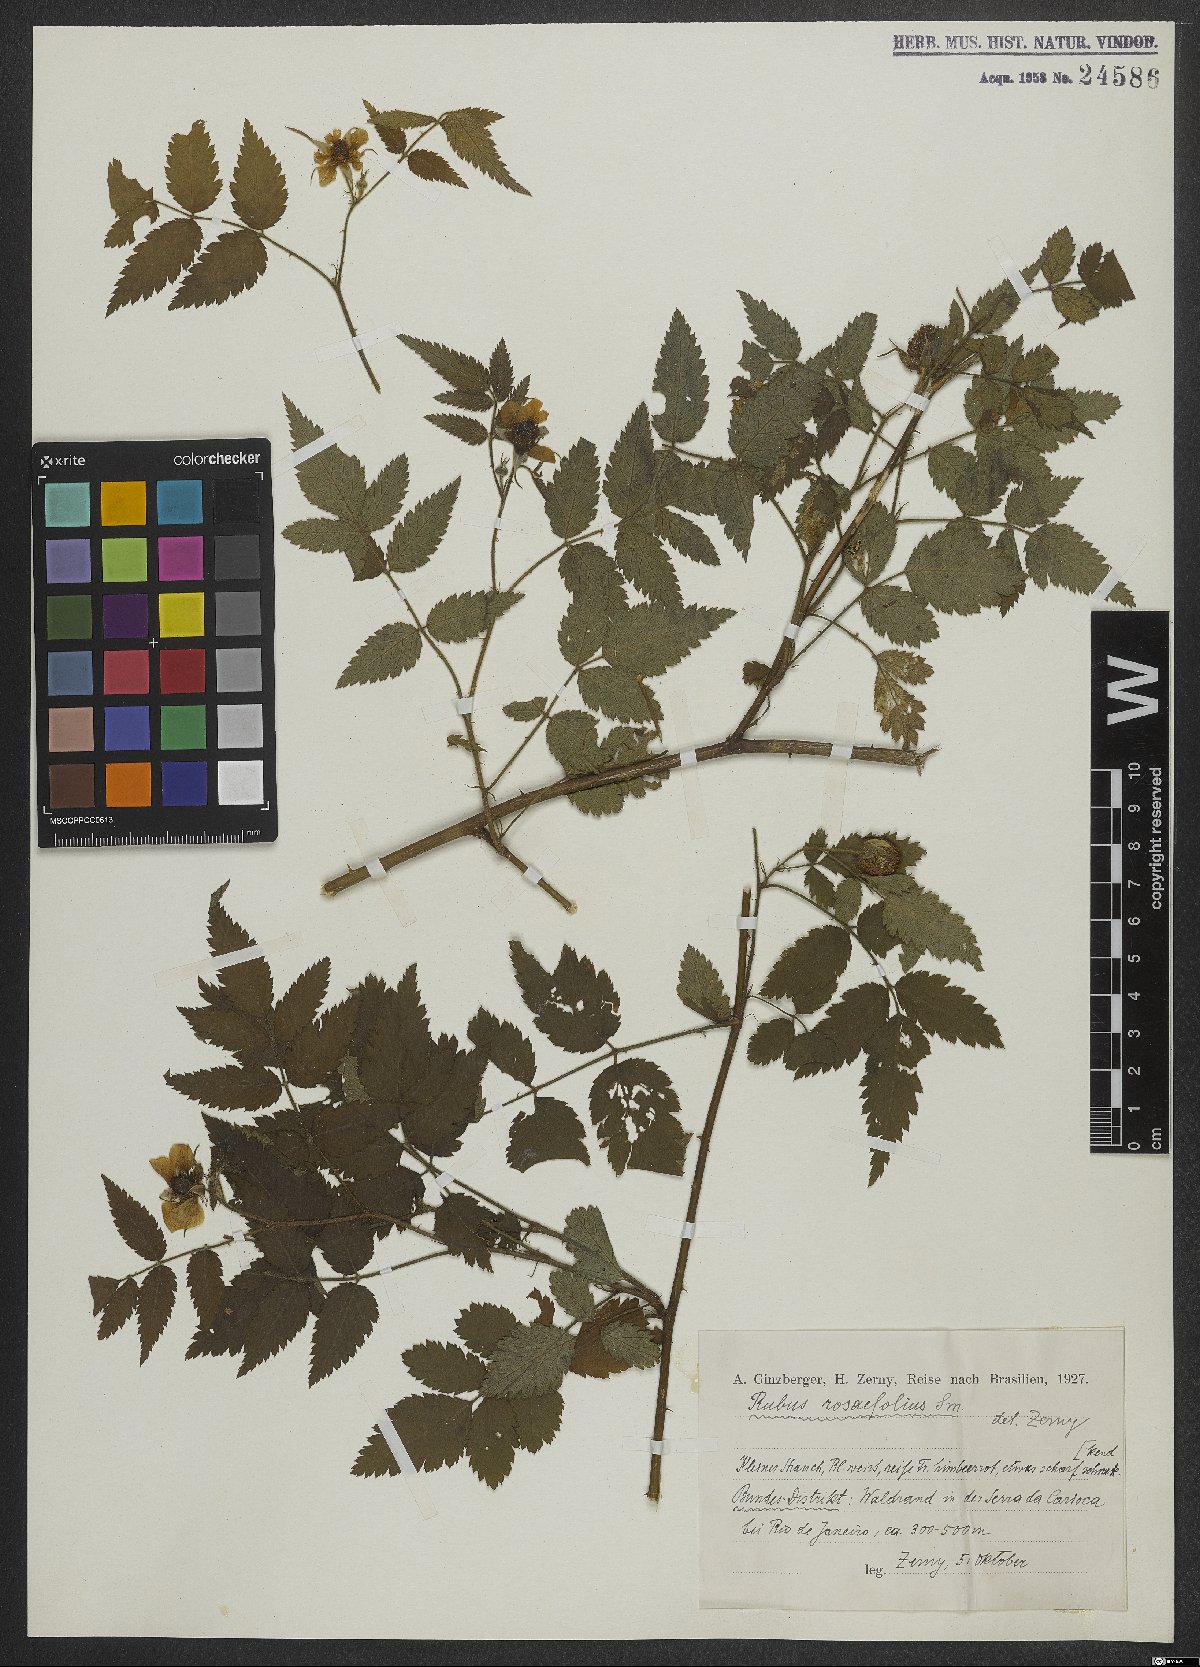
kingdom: Plantae
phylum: Tracheophyta
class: Magnoliopsida
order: Rosales
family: Rosaceae
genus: Prunus
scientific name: Prunus myrtifolia
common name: West indies cherry
